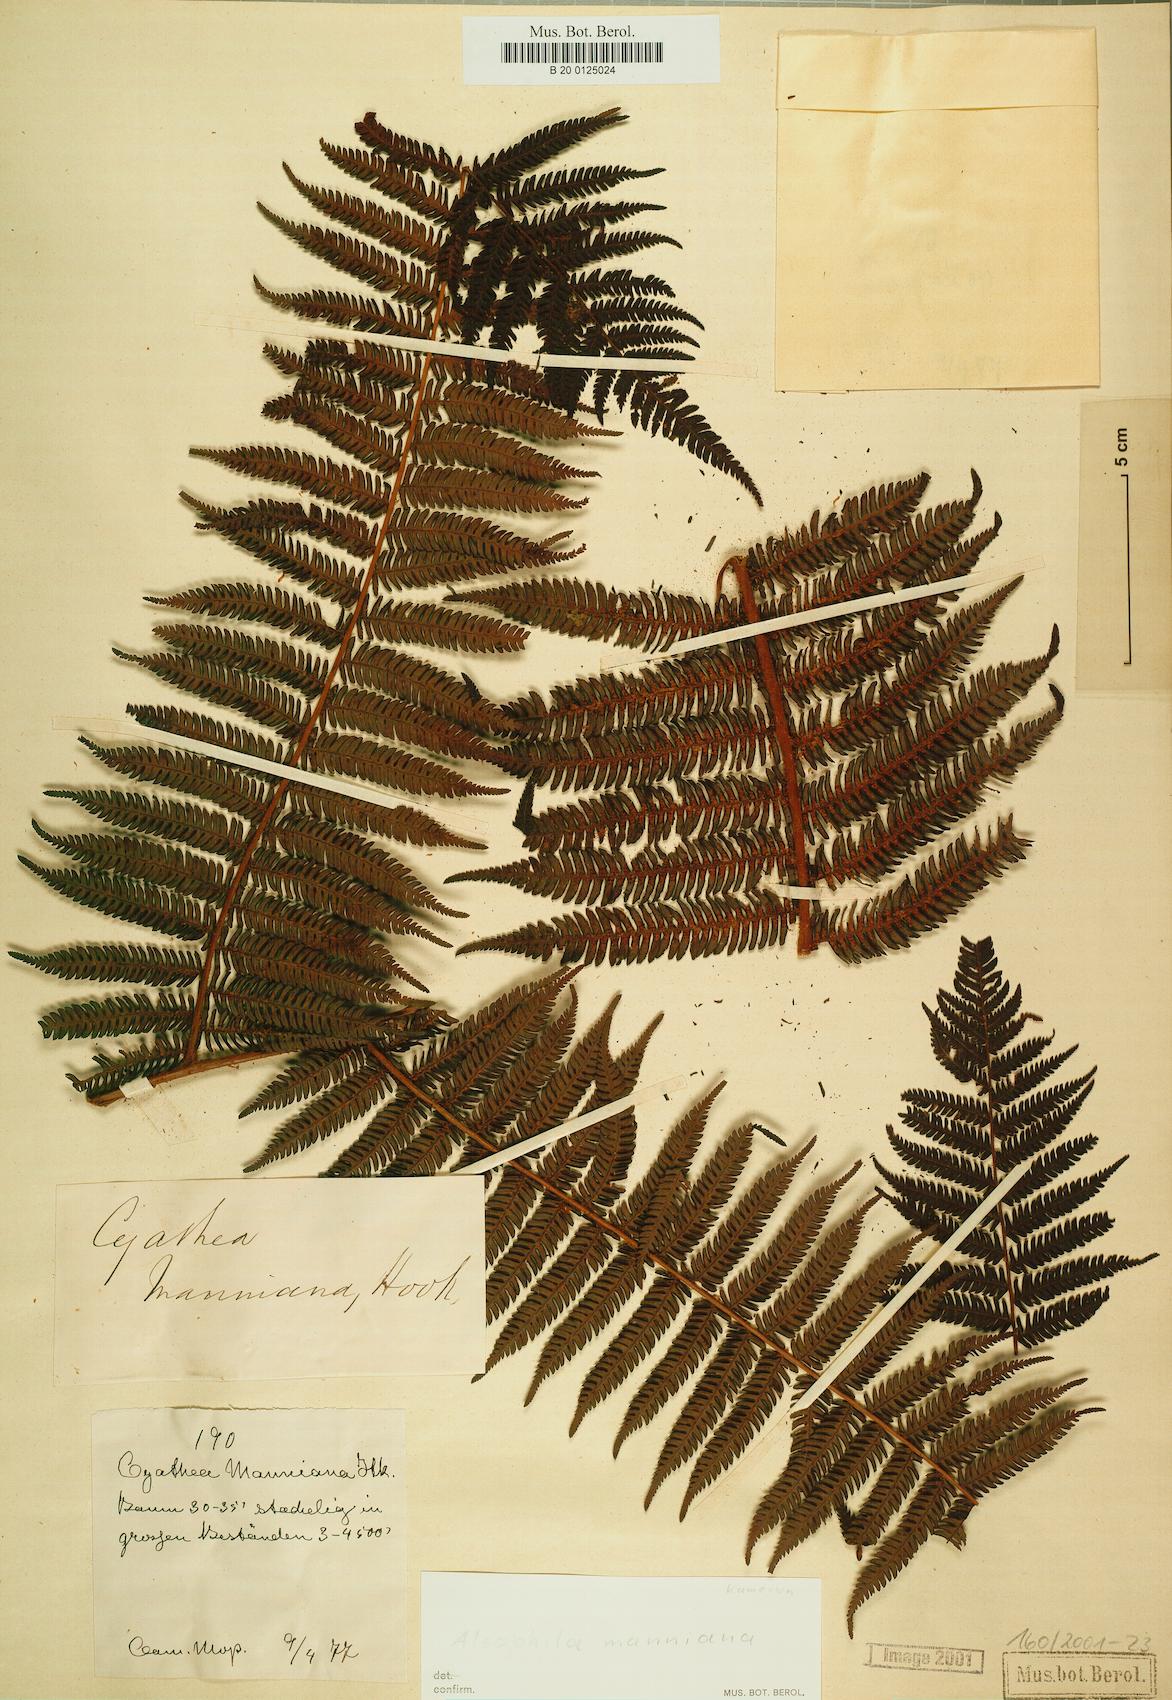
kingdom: Plantae
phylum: Tracheophyta
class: Polypodiopsida
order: Cyatheales
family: Cyatheaceae
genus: Alsophila
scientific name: Alsophila manniana
